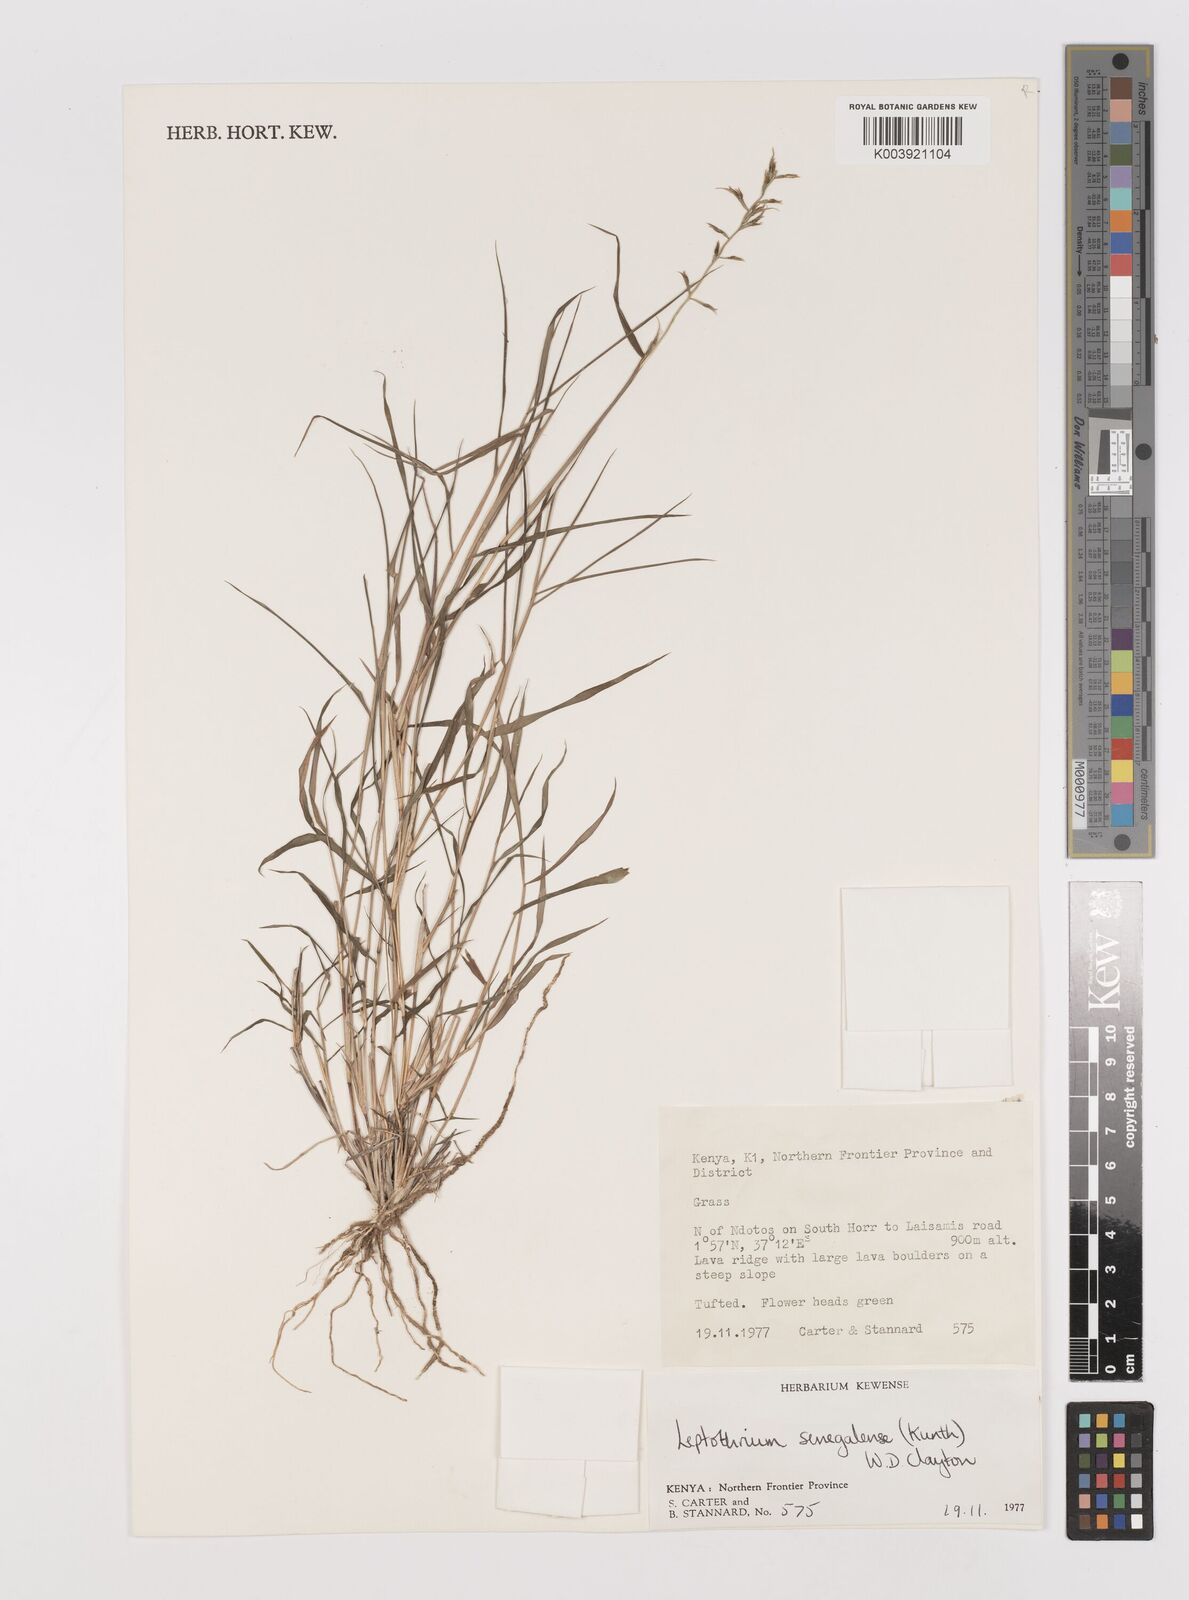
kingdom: Plantae
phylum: Tracheophyta
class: Liliopsida
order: Poales
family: Poaceae
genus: Leptothrium
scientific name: Leptothrium senegalense
